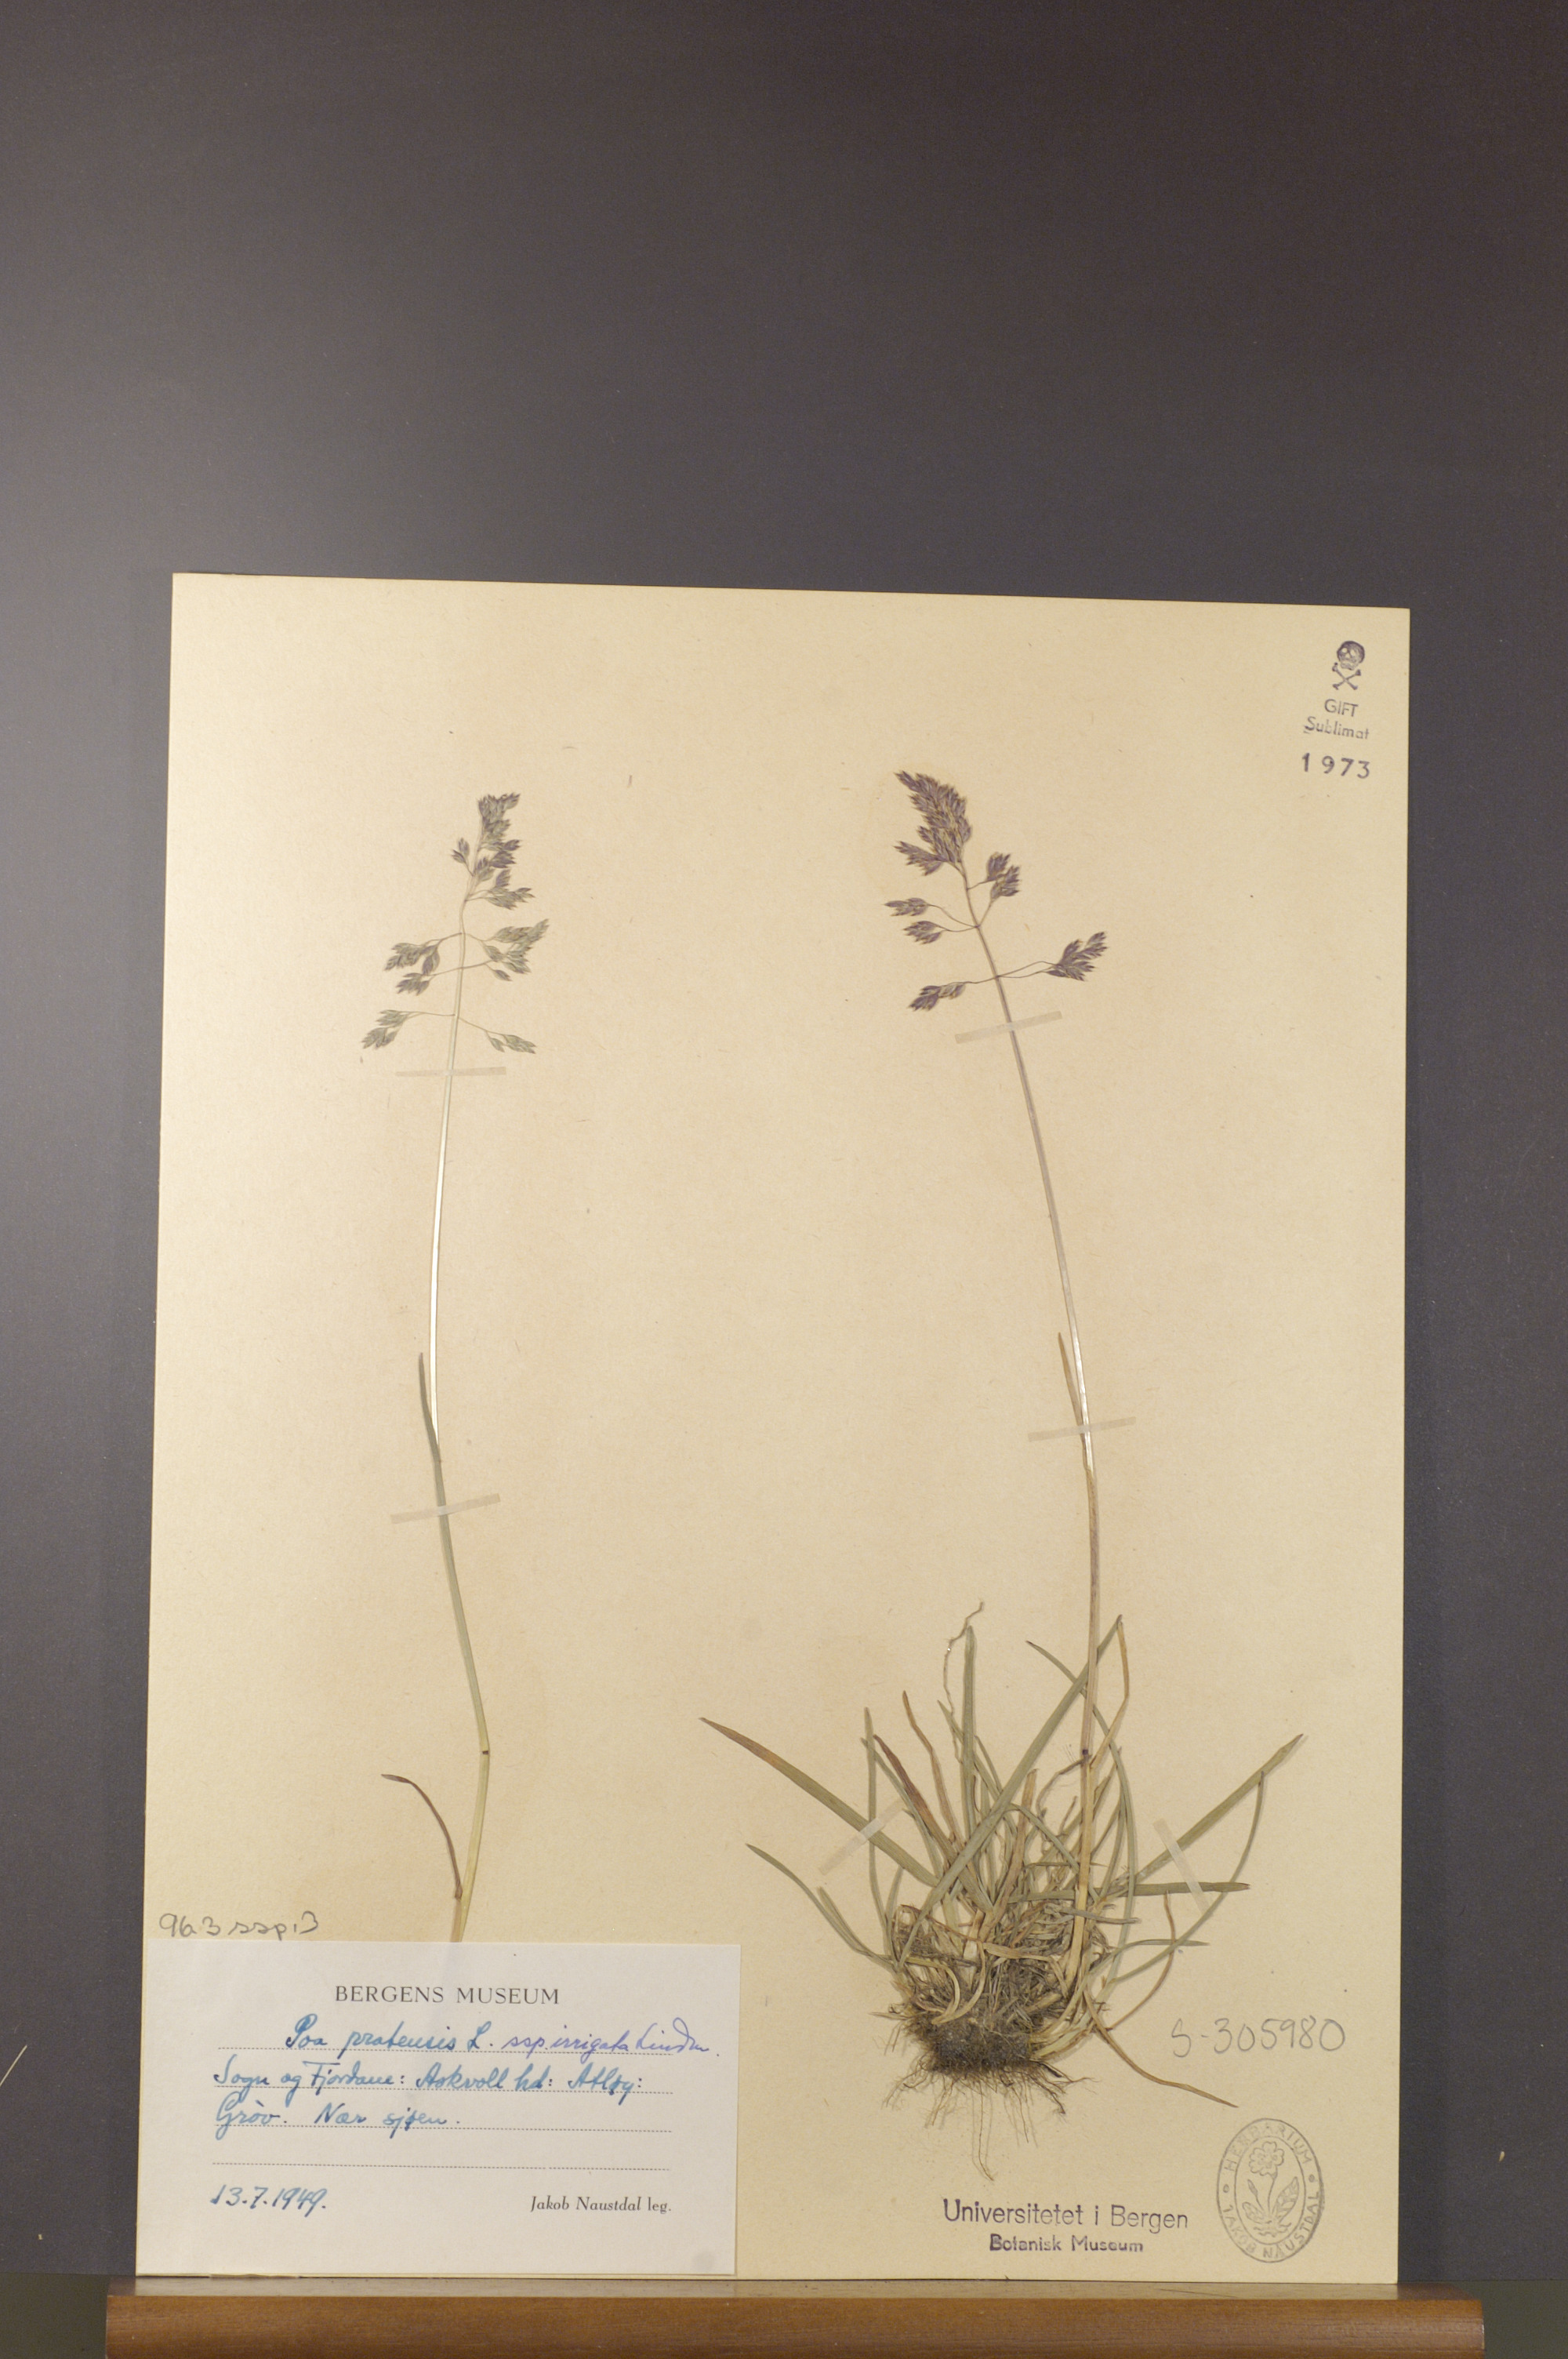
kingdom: Plantae
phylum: Tracheophyta
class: Liliopsida
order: Poales
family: Poaceae
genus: Poa
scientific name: Poa humilis
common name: Spreading meadow-grass
